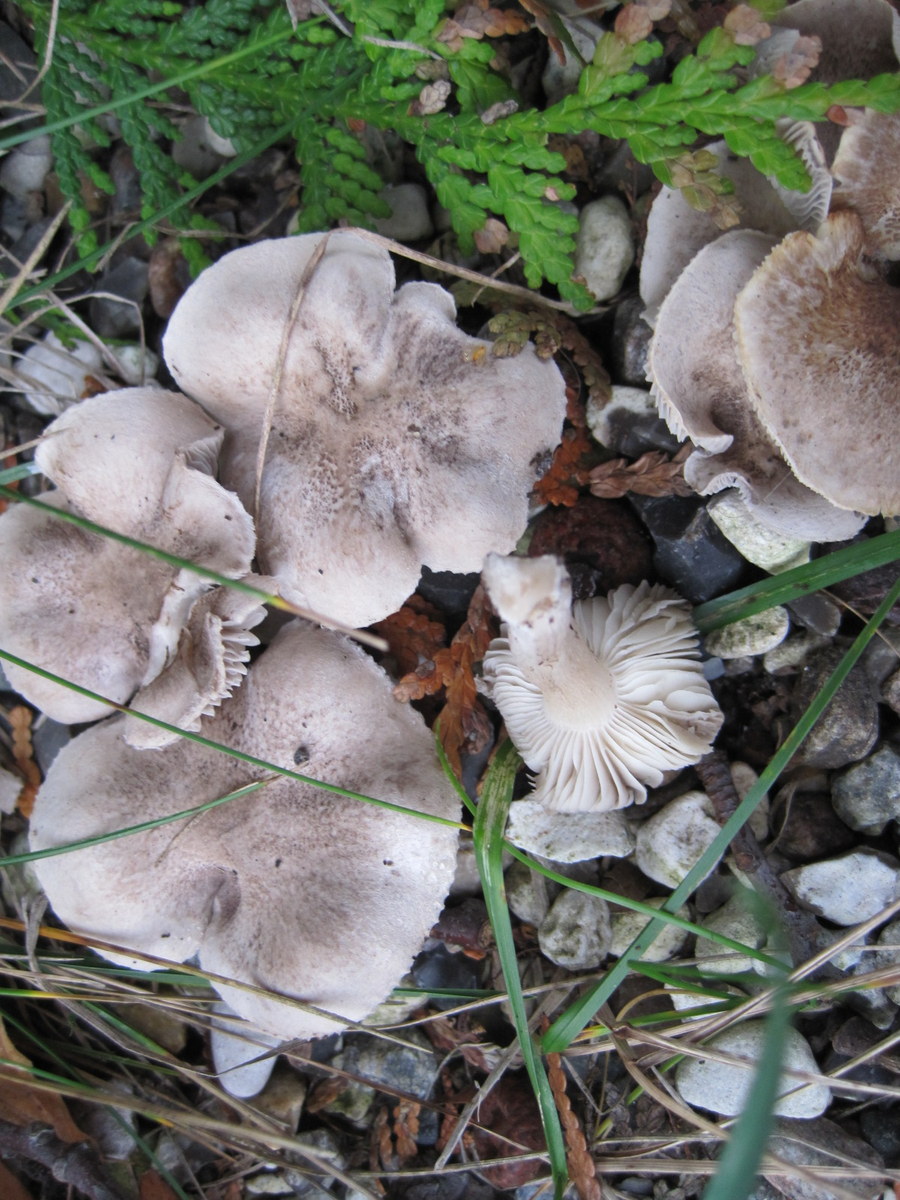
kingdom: Fungi
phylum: Basidiomycota
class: Agaricomycetes
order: Agaricales
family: Tricholomataceae
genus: Tricholoma
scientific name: Tricholoma scalpturatum
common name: gulplettet ridderhat
